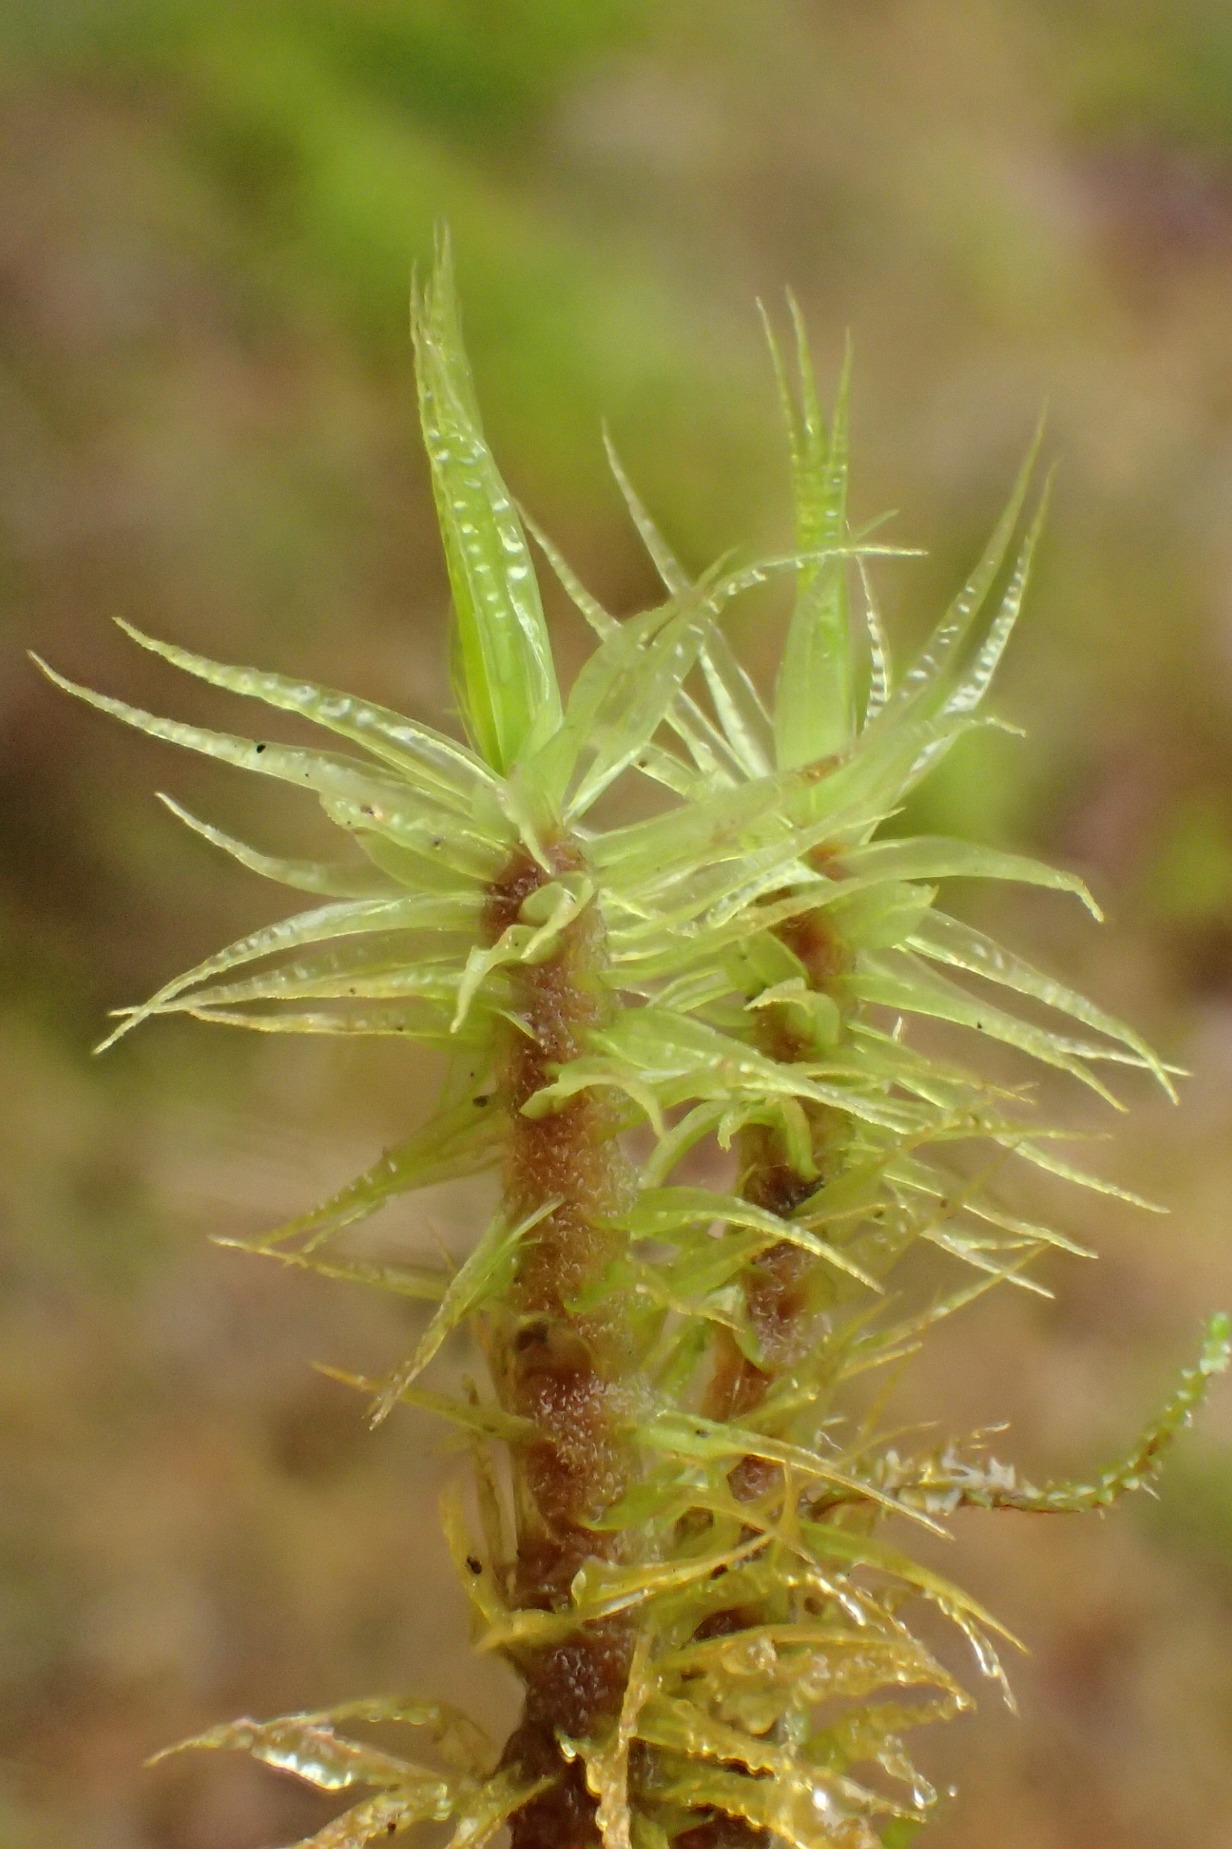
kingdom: Plantae
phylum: Bryophyta
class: Bryopsida
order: Dicranales
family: Dicranaceae
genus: Dicranum
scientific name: Dicranum polysetum
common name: Bølgebladet kløvtand
